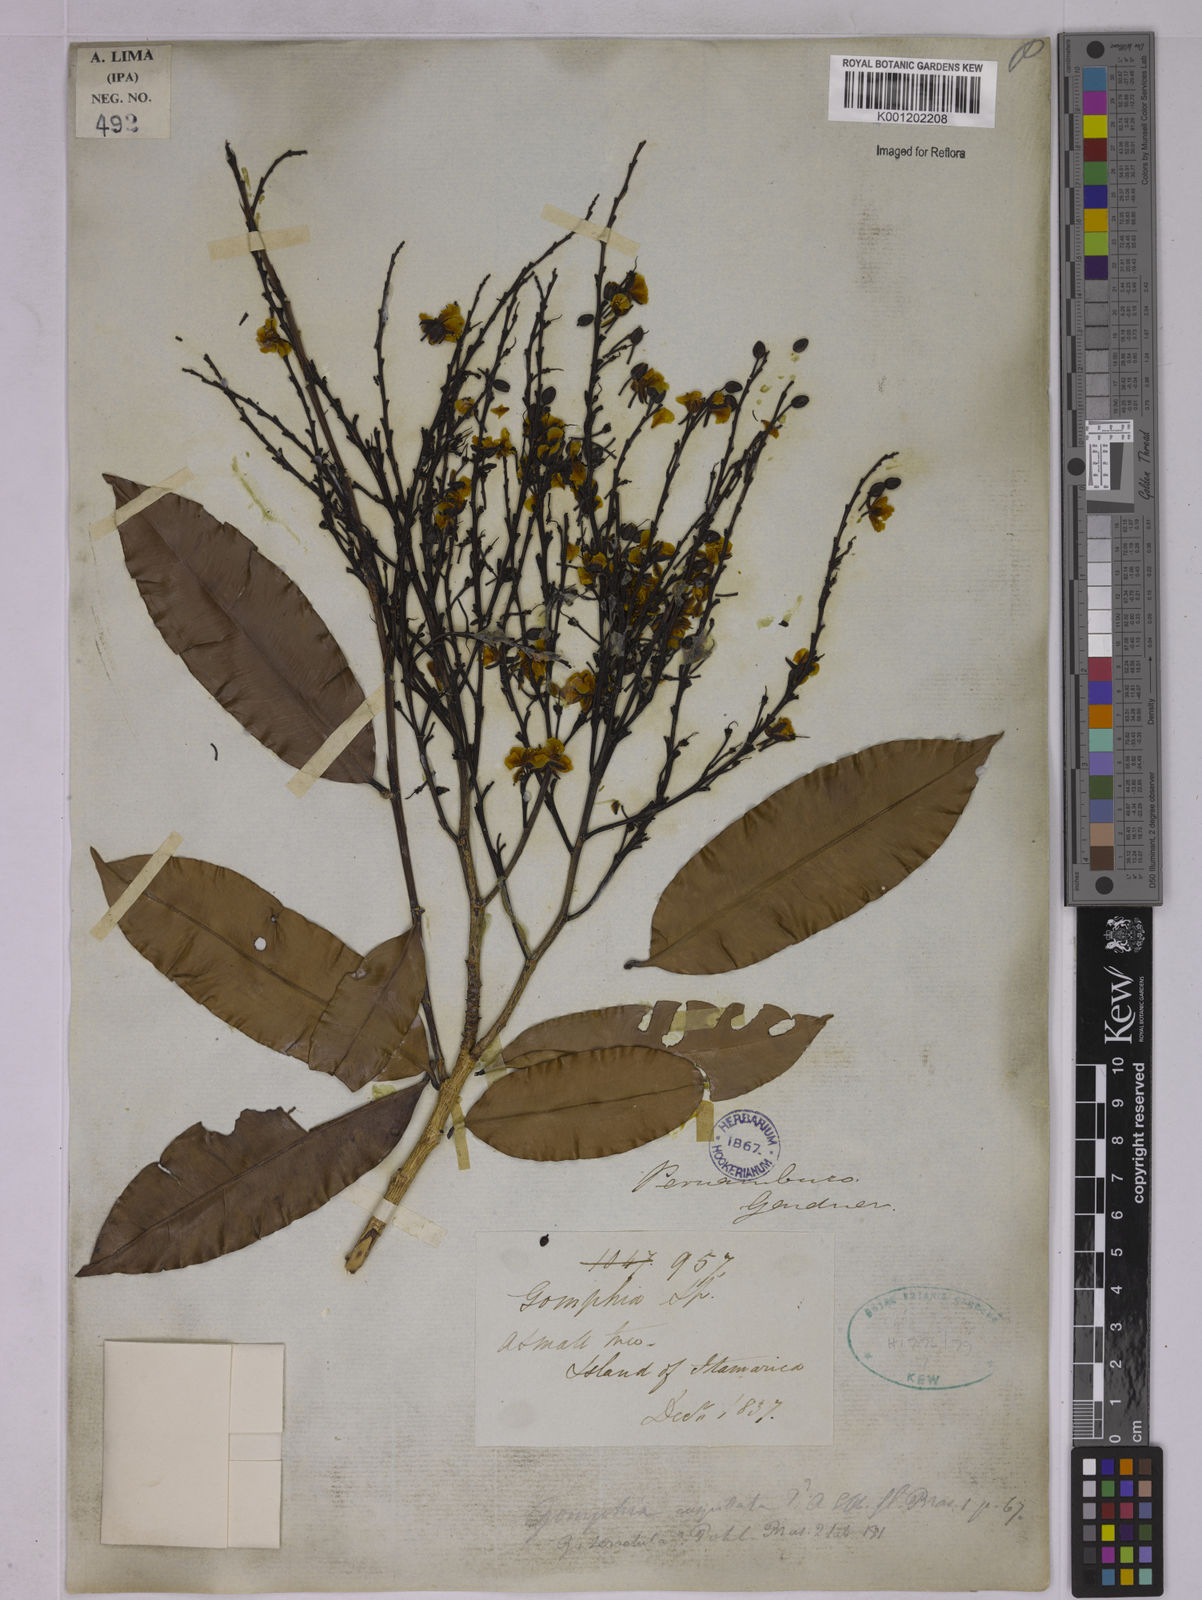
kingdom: Plantae
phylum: Tracheophyta
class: Magnoliopsida
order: Malpighiales
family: Ochnaceae
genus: Ouratea
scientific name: Ouratea
